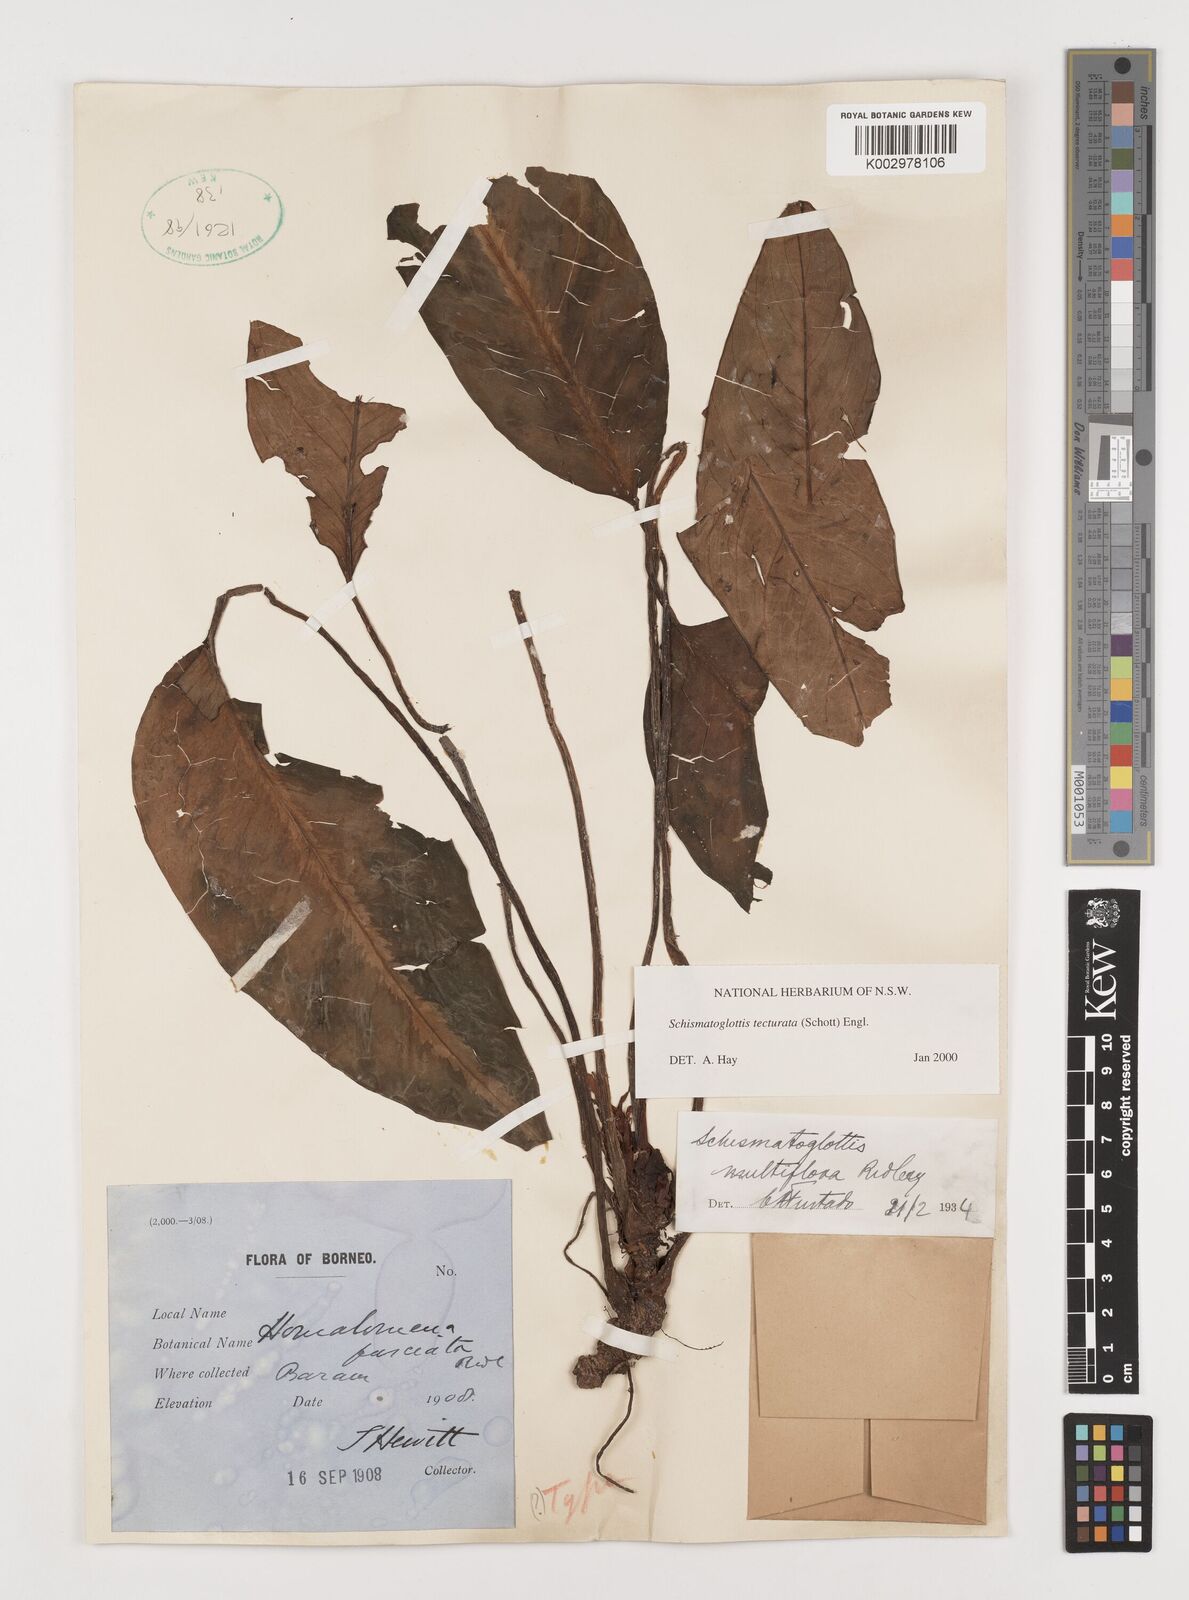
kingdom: Plantae
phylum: Tracheophyta
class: Liliopsida
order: Zingiberales
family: Costaceae
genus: Colobogynium
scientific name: Colobogynium variegatum
